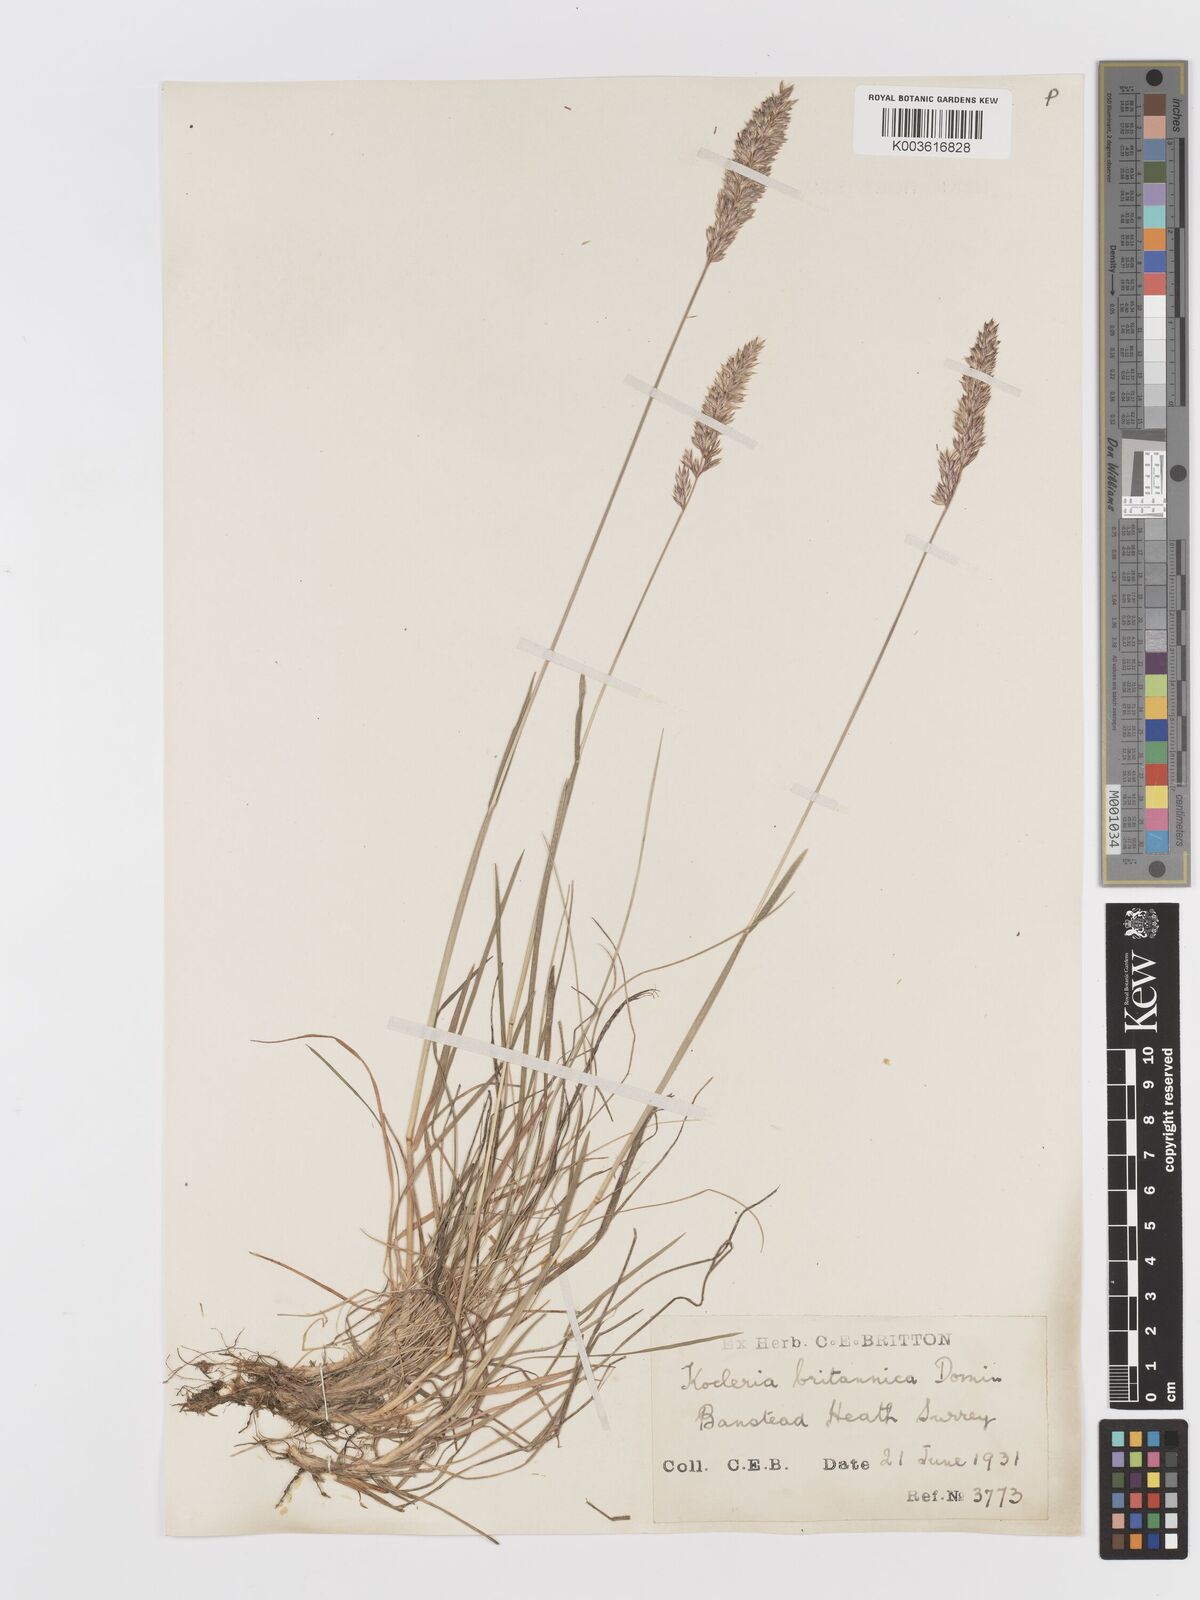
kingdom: Plantae
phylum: Tracheophyta
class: Liliopsida
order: Poales
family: Poaceae
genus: Koeleria
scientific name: Koeleria macrantha
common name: Crested hair-grass
